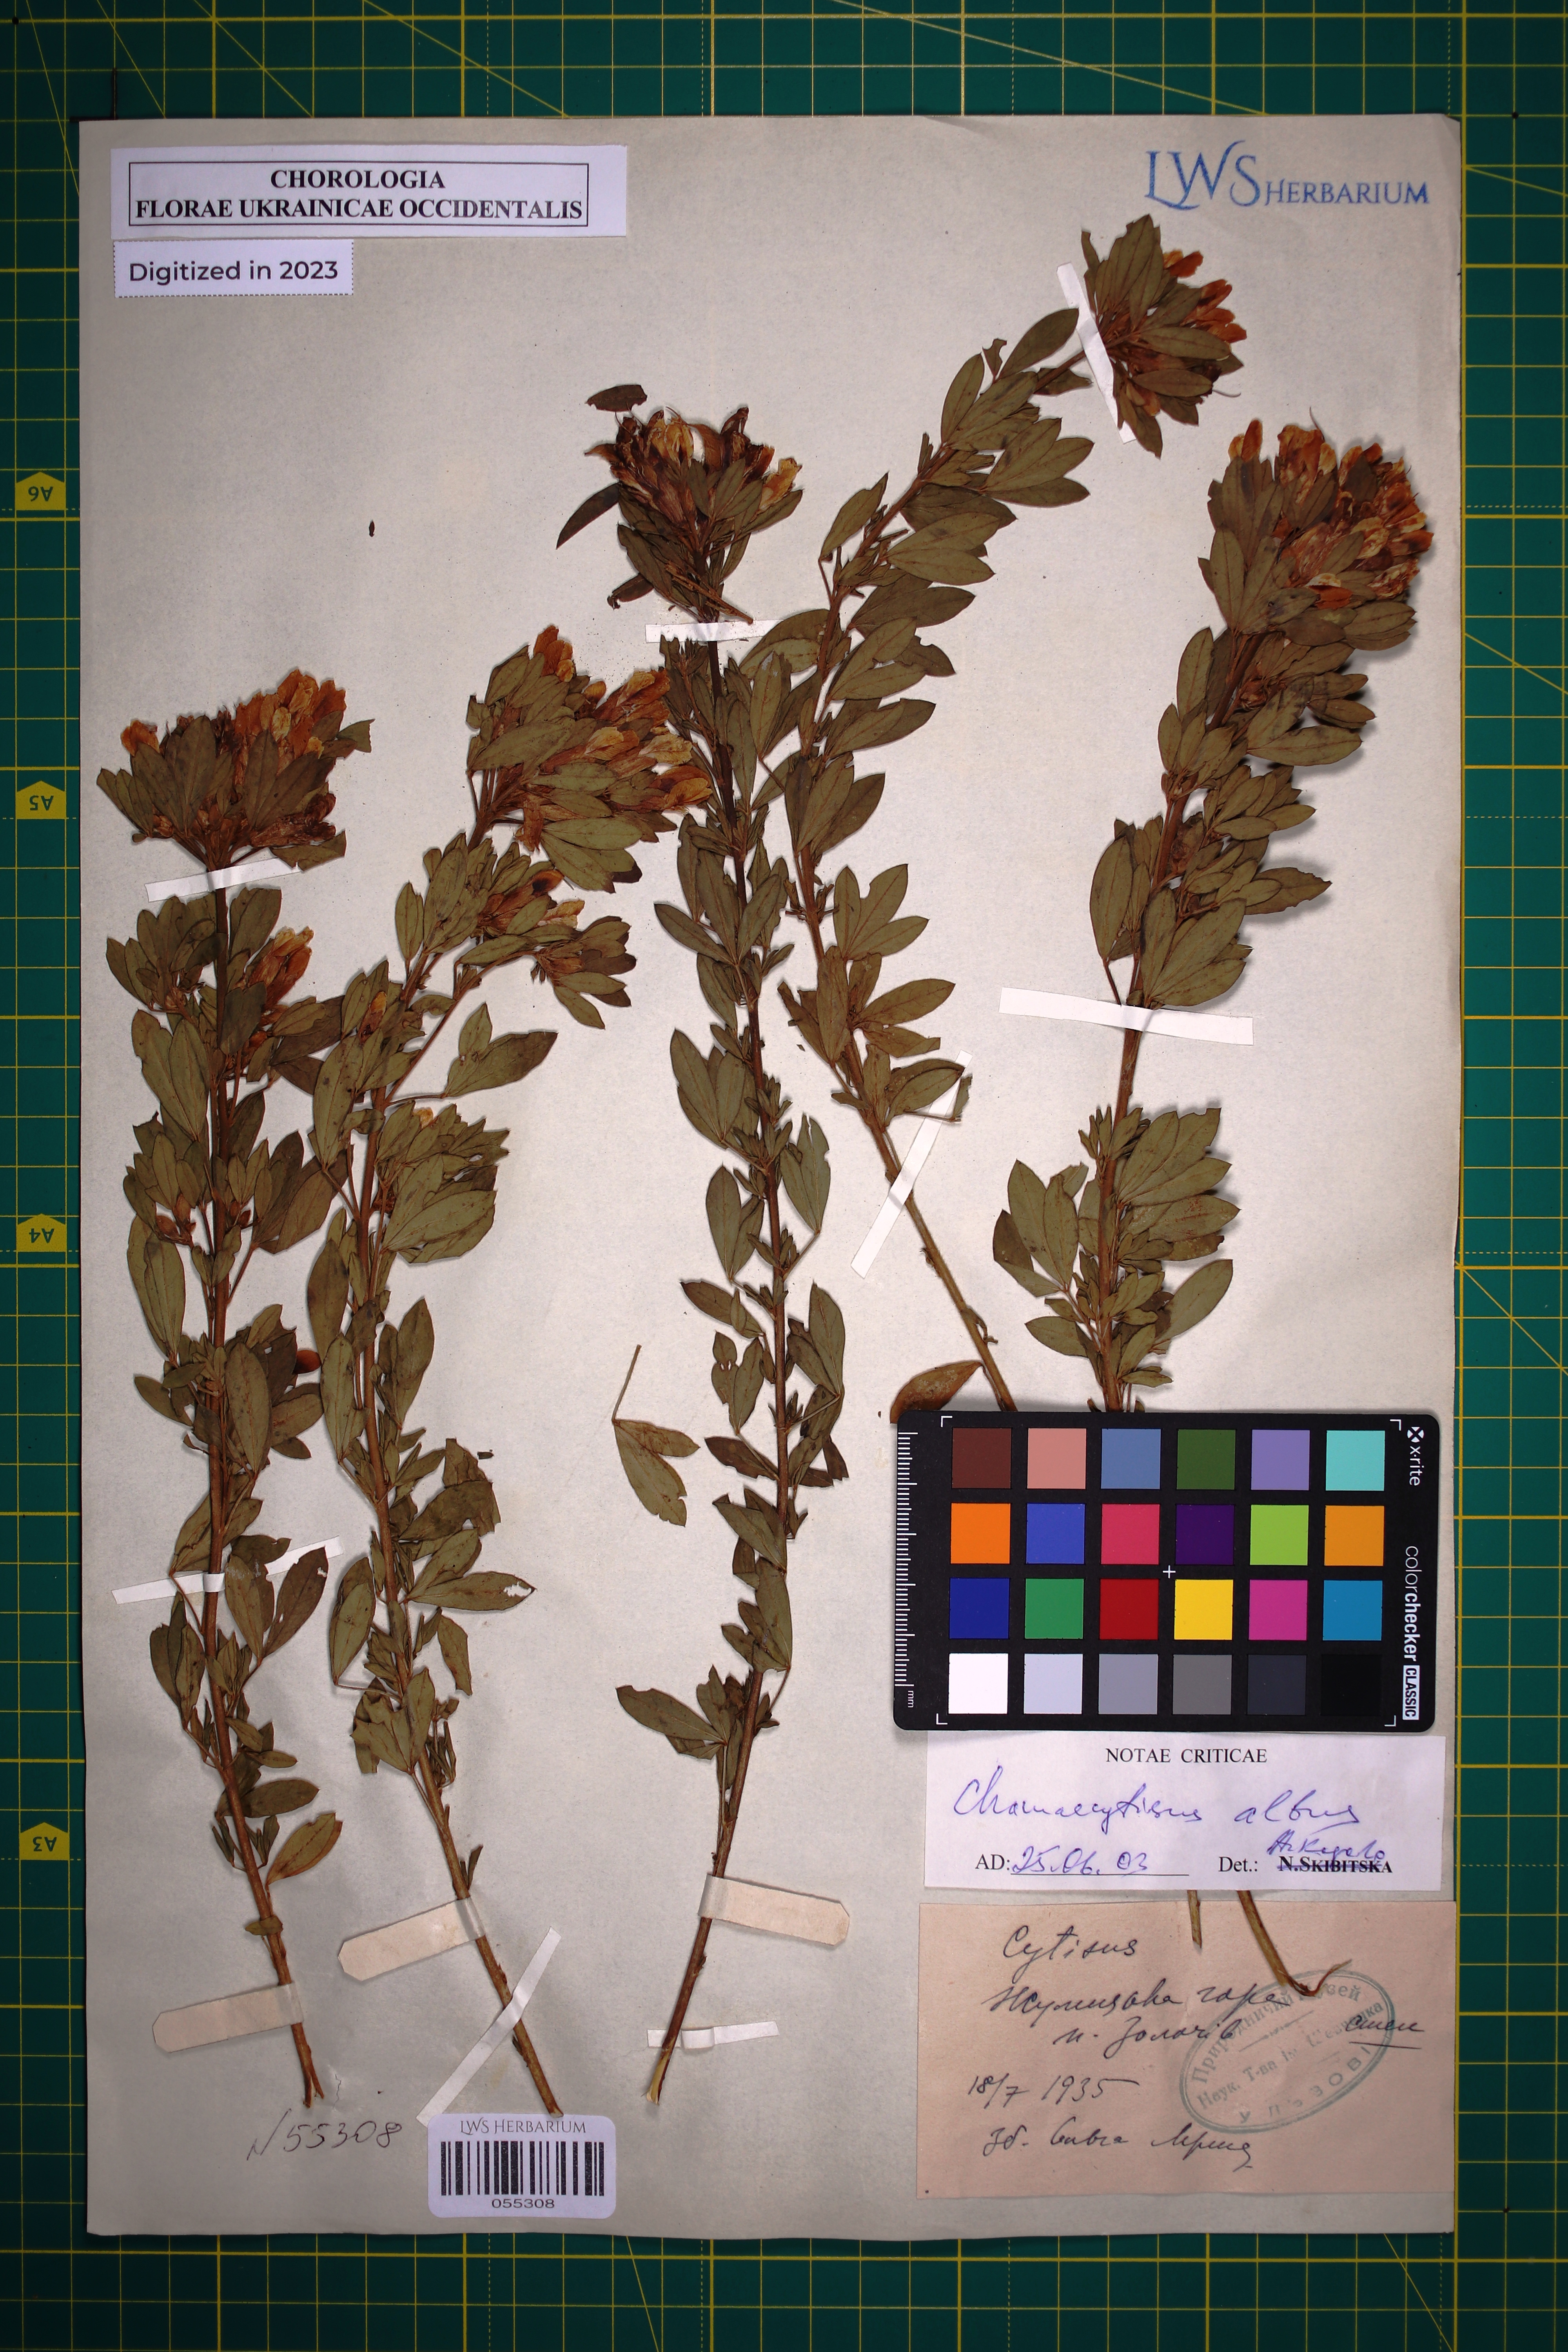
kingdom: Plantae
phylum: Tracheophyta
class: Magnoliopsida
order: Fabales
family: Fabaceae
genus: Chamaecytisus
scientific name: Chamaecytisus albus
